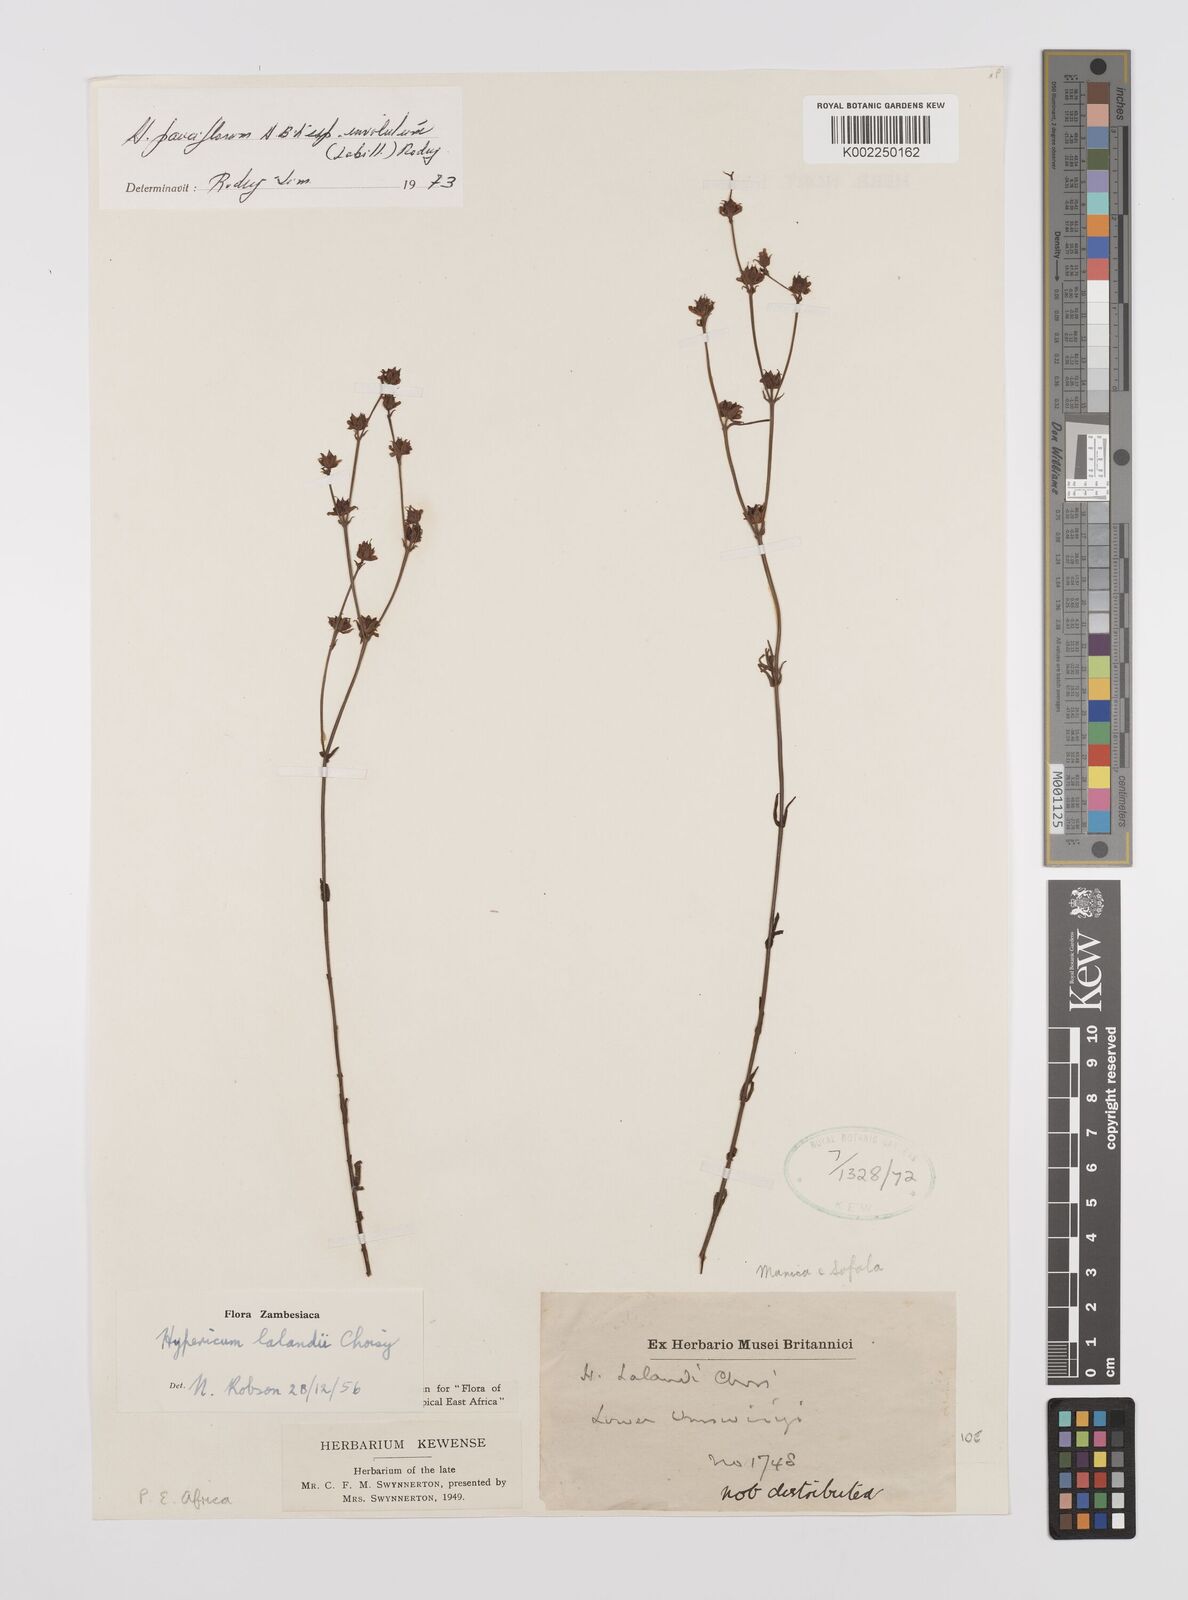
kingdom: Plantae
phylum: Tracheophyta
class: Magnoliopsida
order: Malpighiales
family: Hypericaceae
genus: Hypericum
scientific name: Hypericum lalandii
